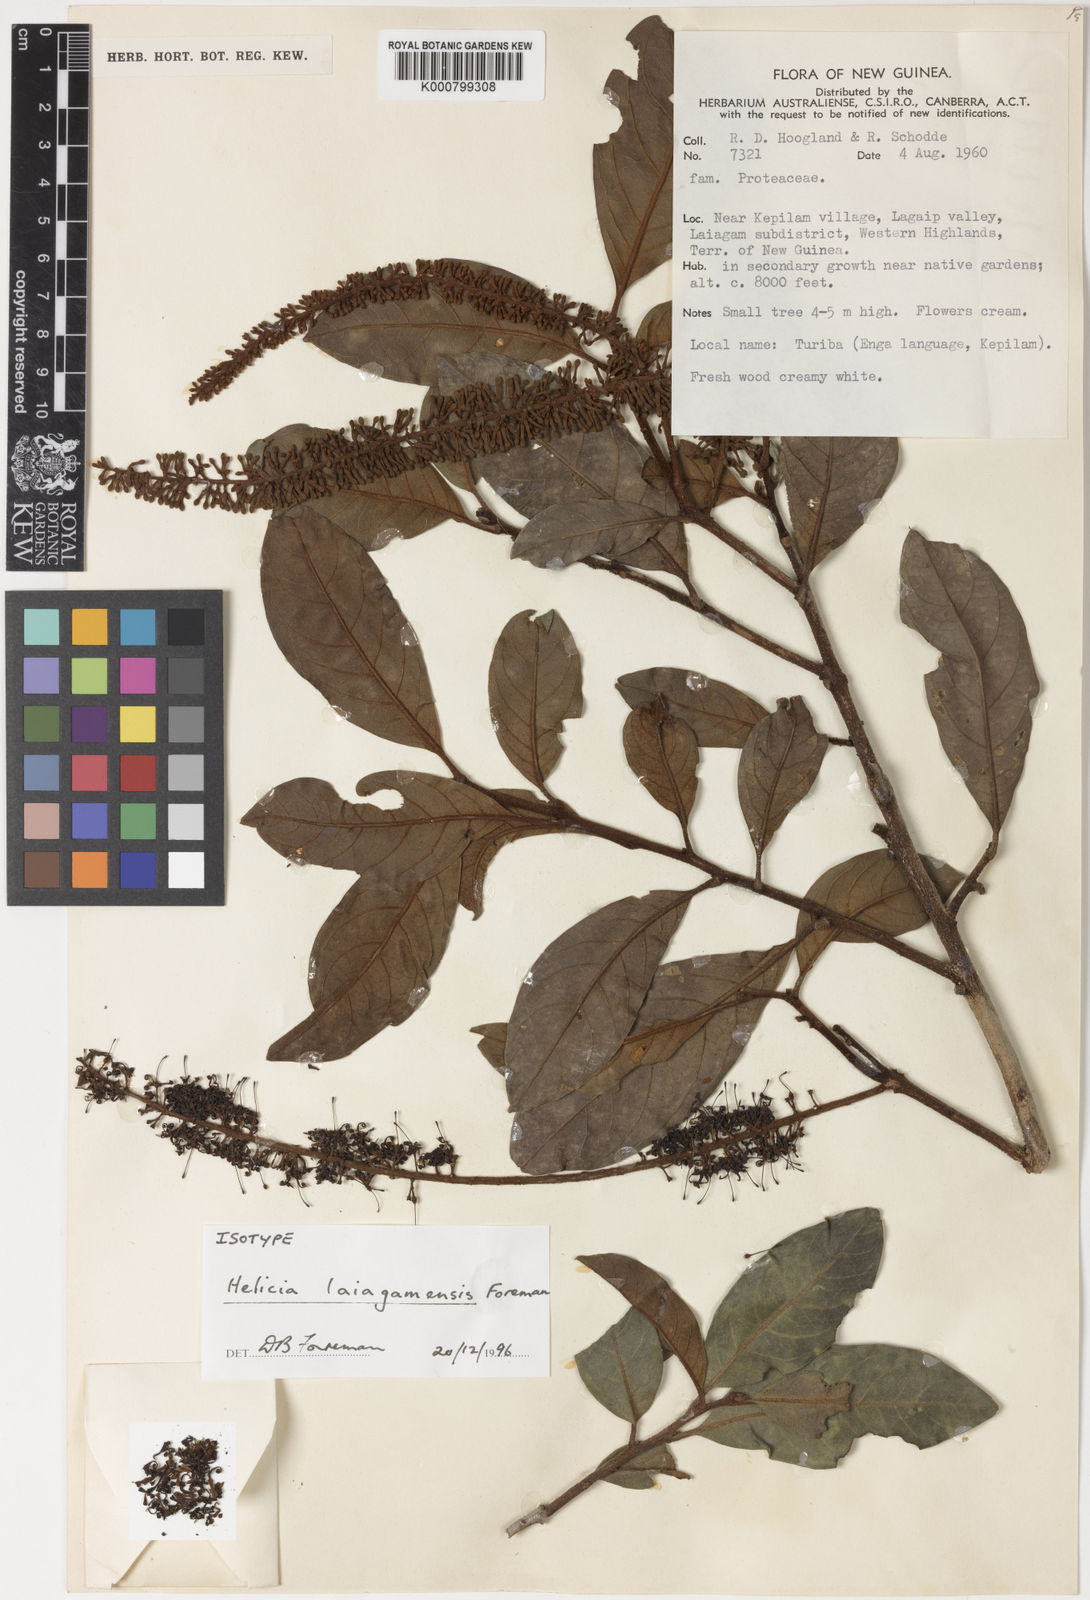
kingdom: Plantae
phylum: Tracheophyta
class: Magnoliopsida
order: Proteales
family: Proteaceae
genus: Helicia
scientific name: Helicia laiagamensis
